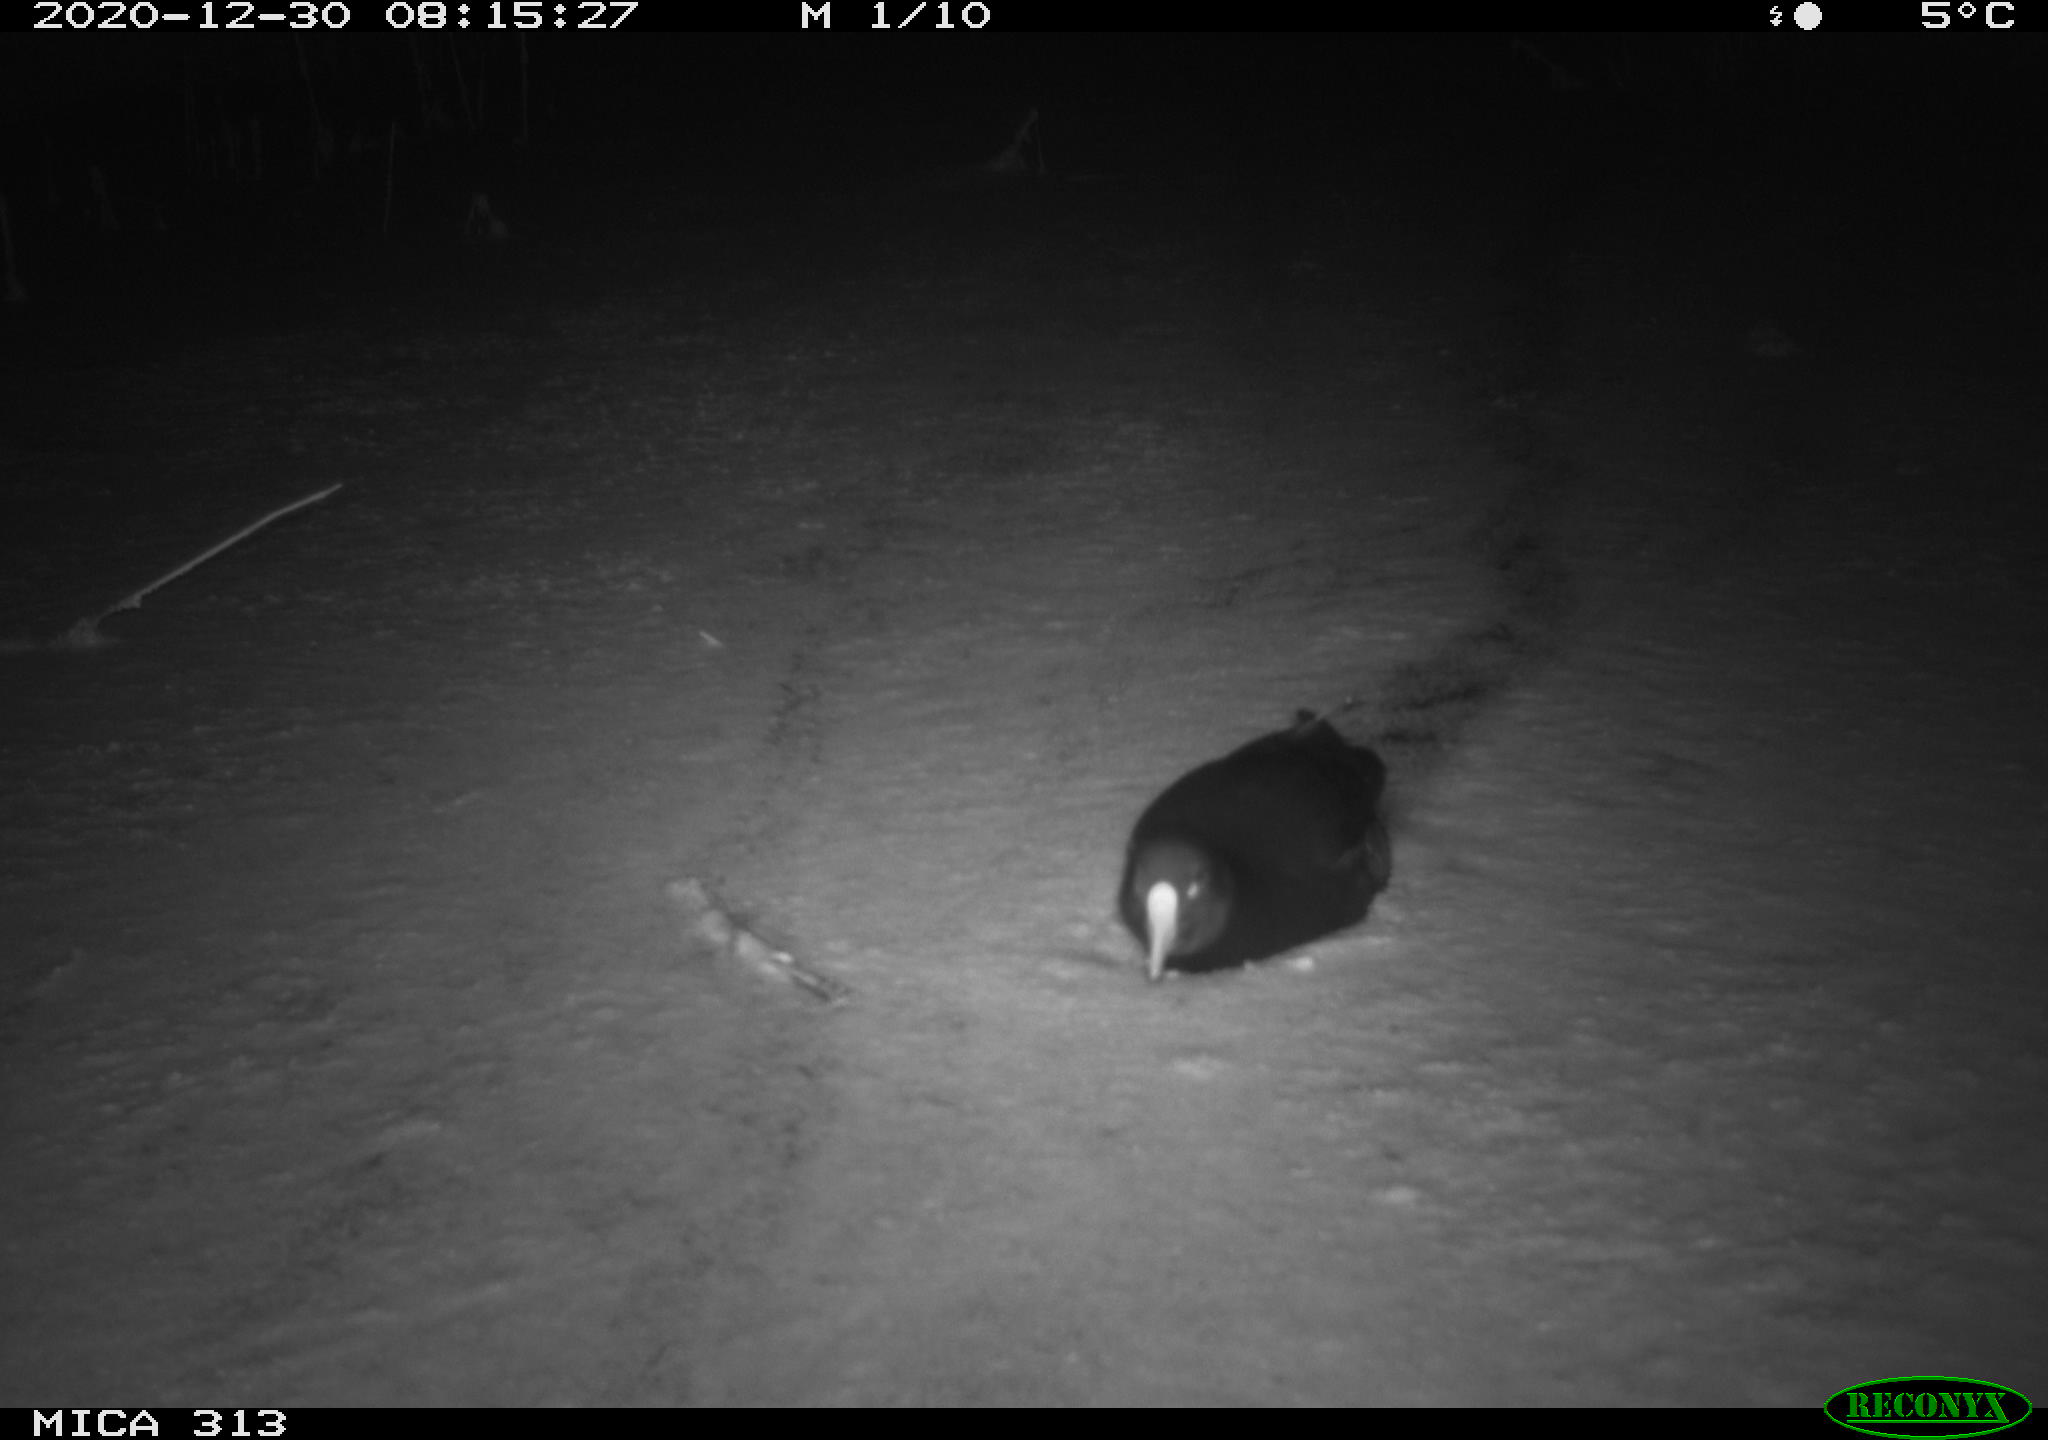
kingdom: Animalia
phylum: Chordata
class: Aves
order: Gruiformes
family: Rallidae
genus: Gallinula
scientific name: Gallinula chloropus
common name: Common moorhen
